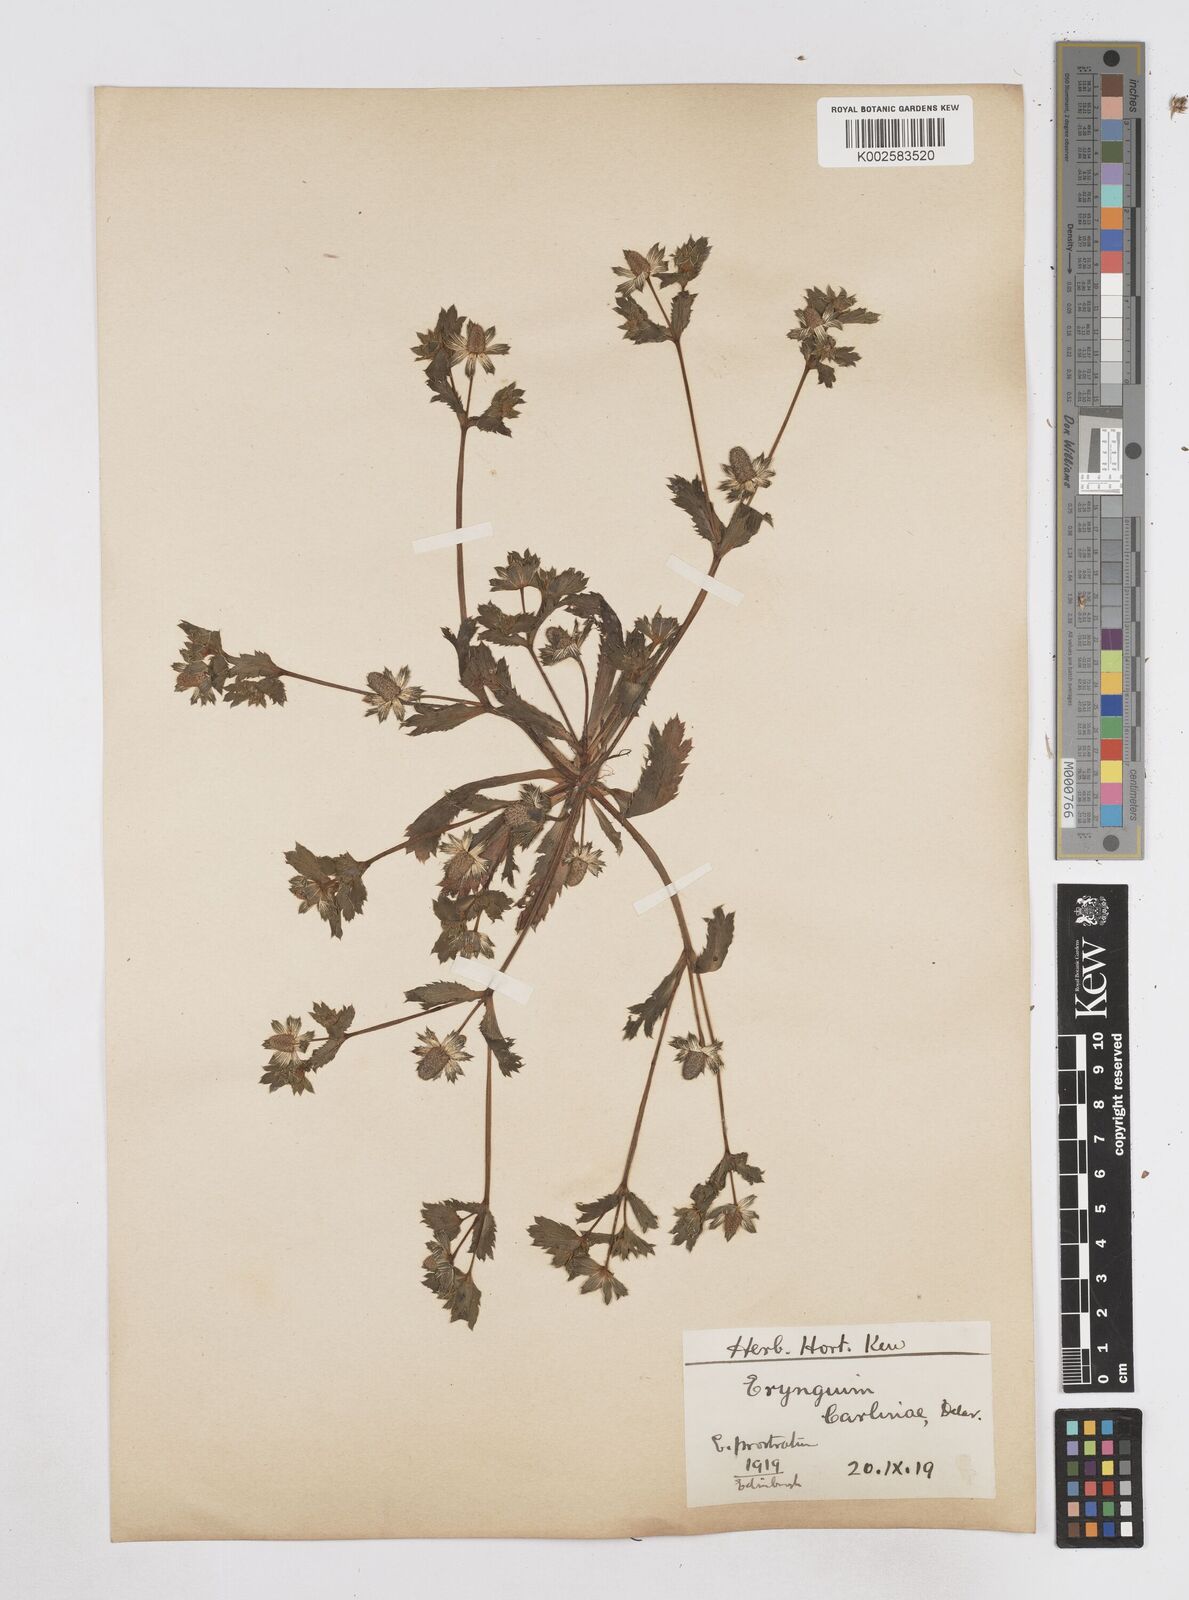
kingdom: Plantae
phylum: Tracheophyta
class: Magnoliopsida
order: Apiales
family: Apiaceae
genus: Eryngium
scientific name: Eryngium carlinae
